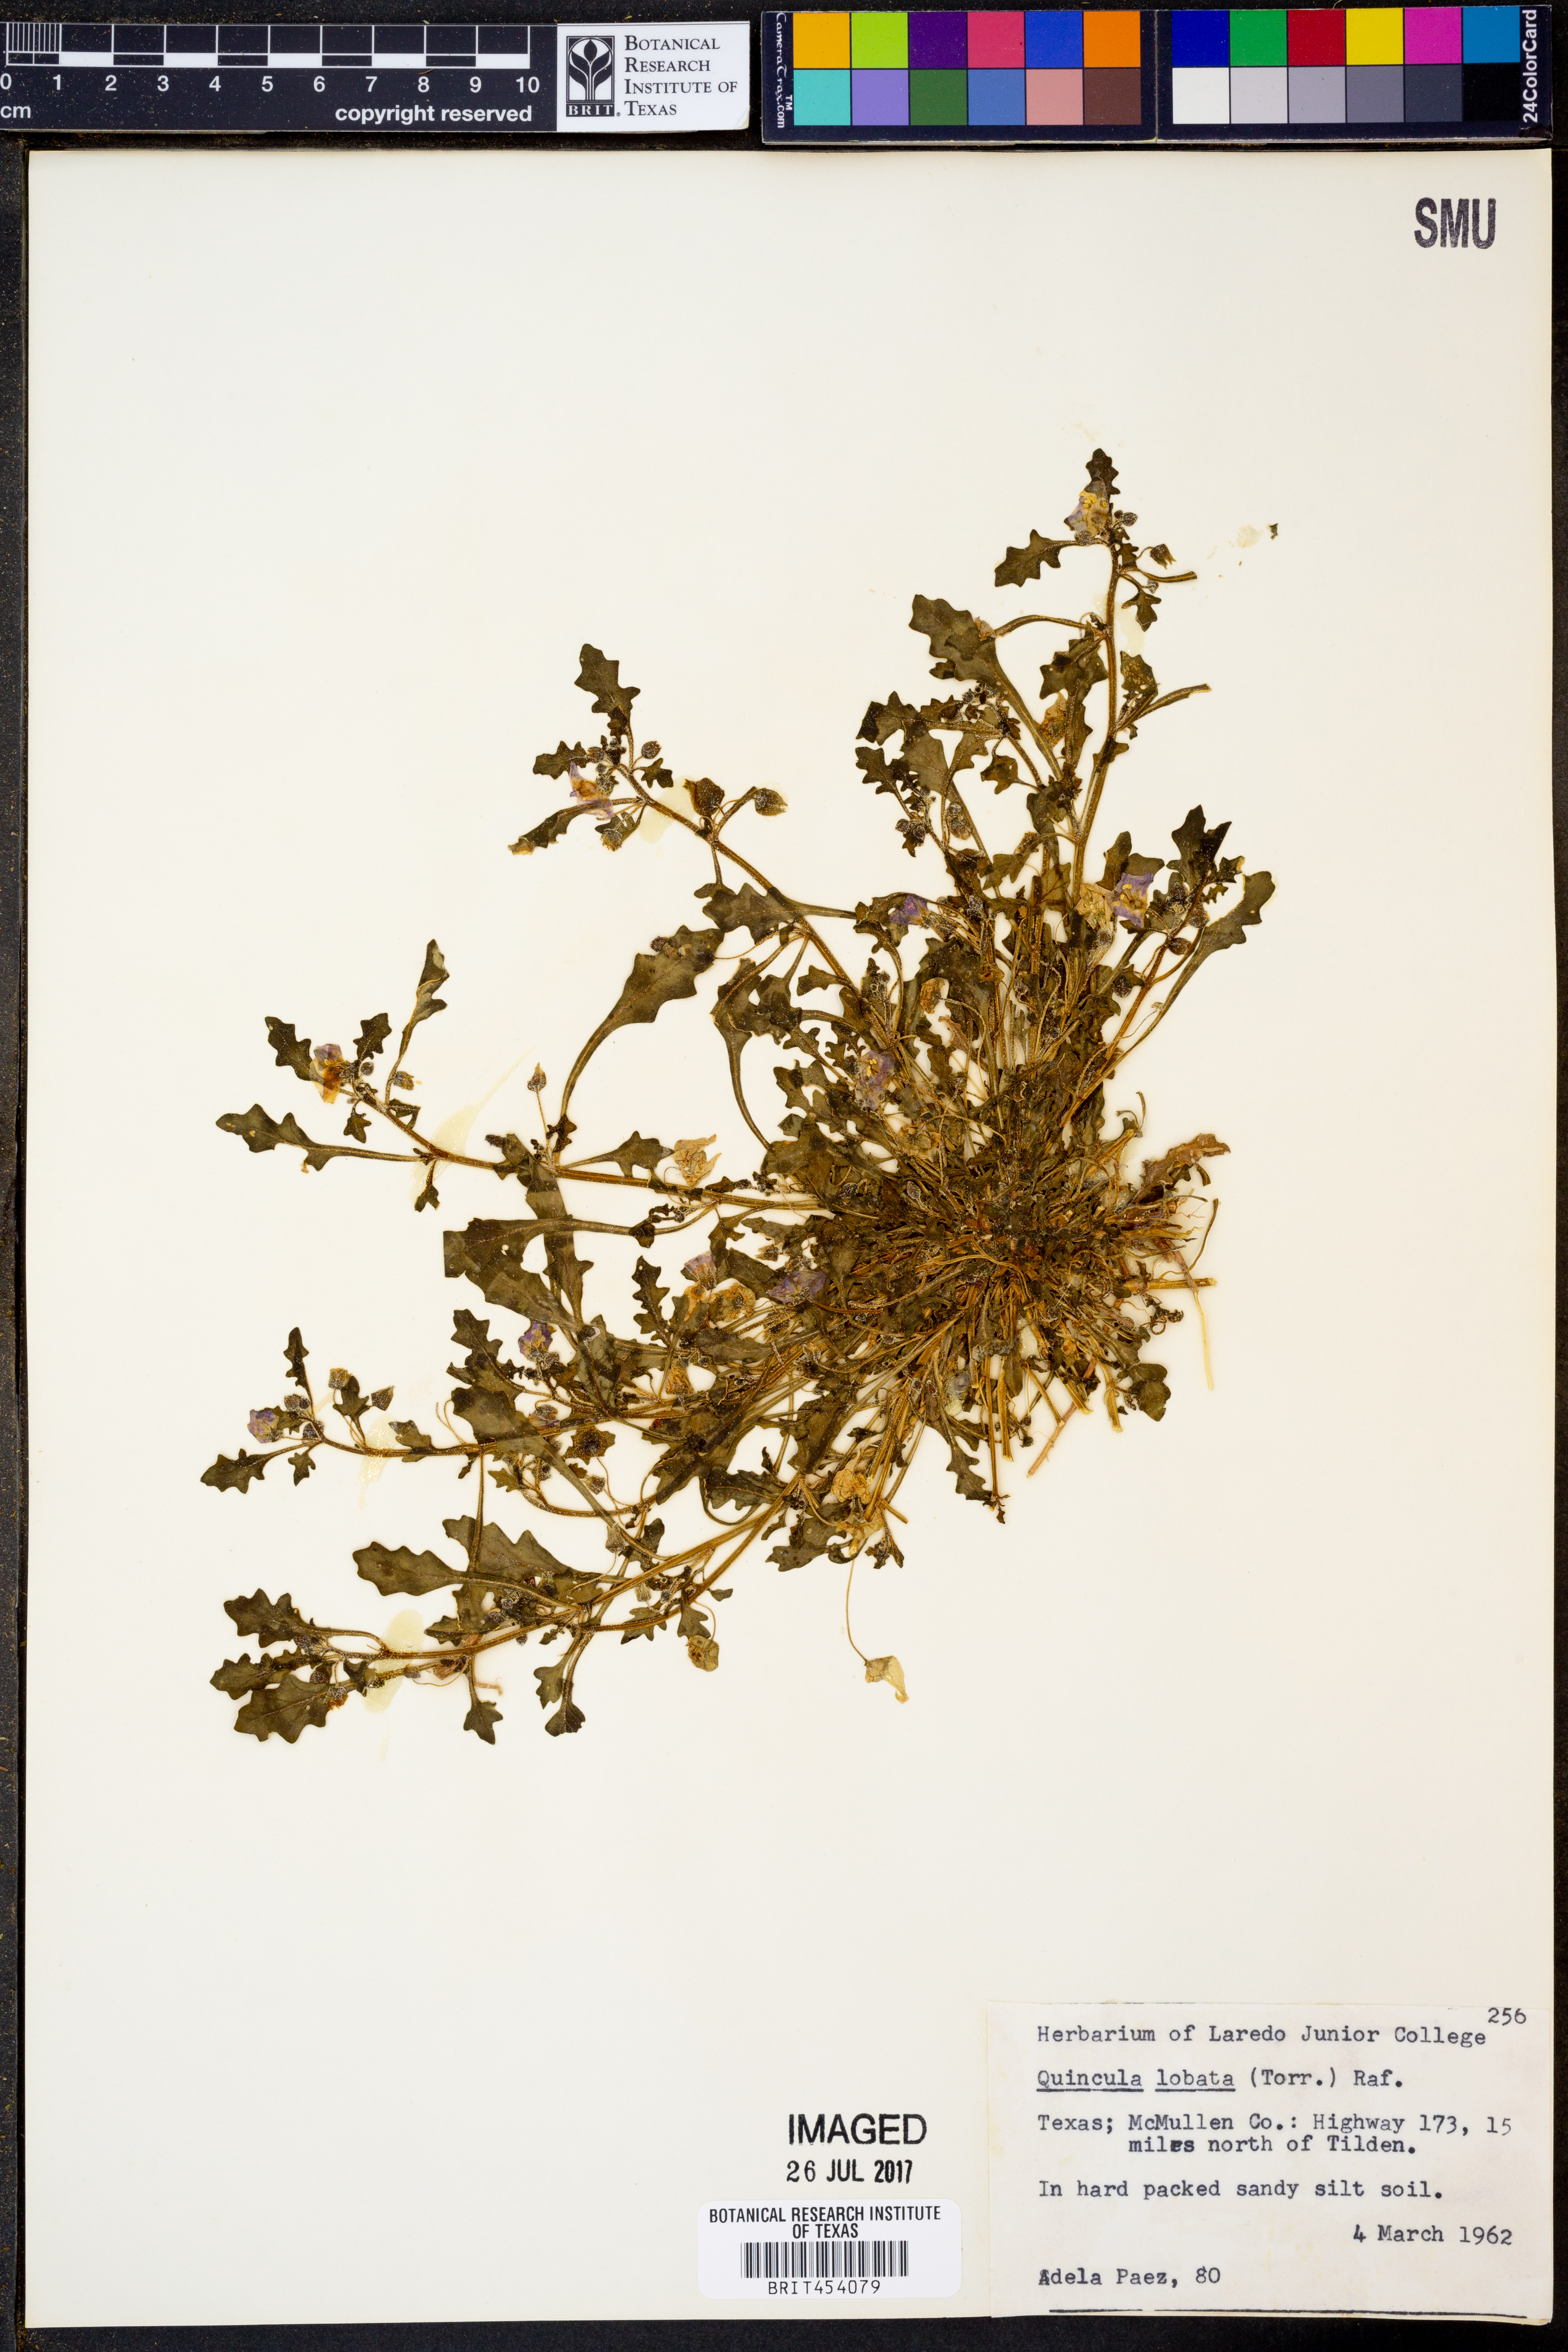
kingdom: Plantae
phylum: Tracheophyta
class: Magnoliopsida
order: Solanales
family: Solanaceae
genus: Quincula
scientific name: Quincula lobata
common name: Purple-ground-cherry
